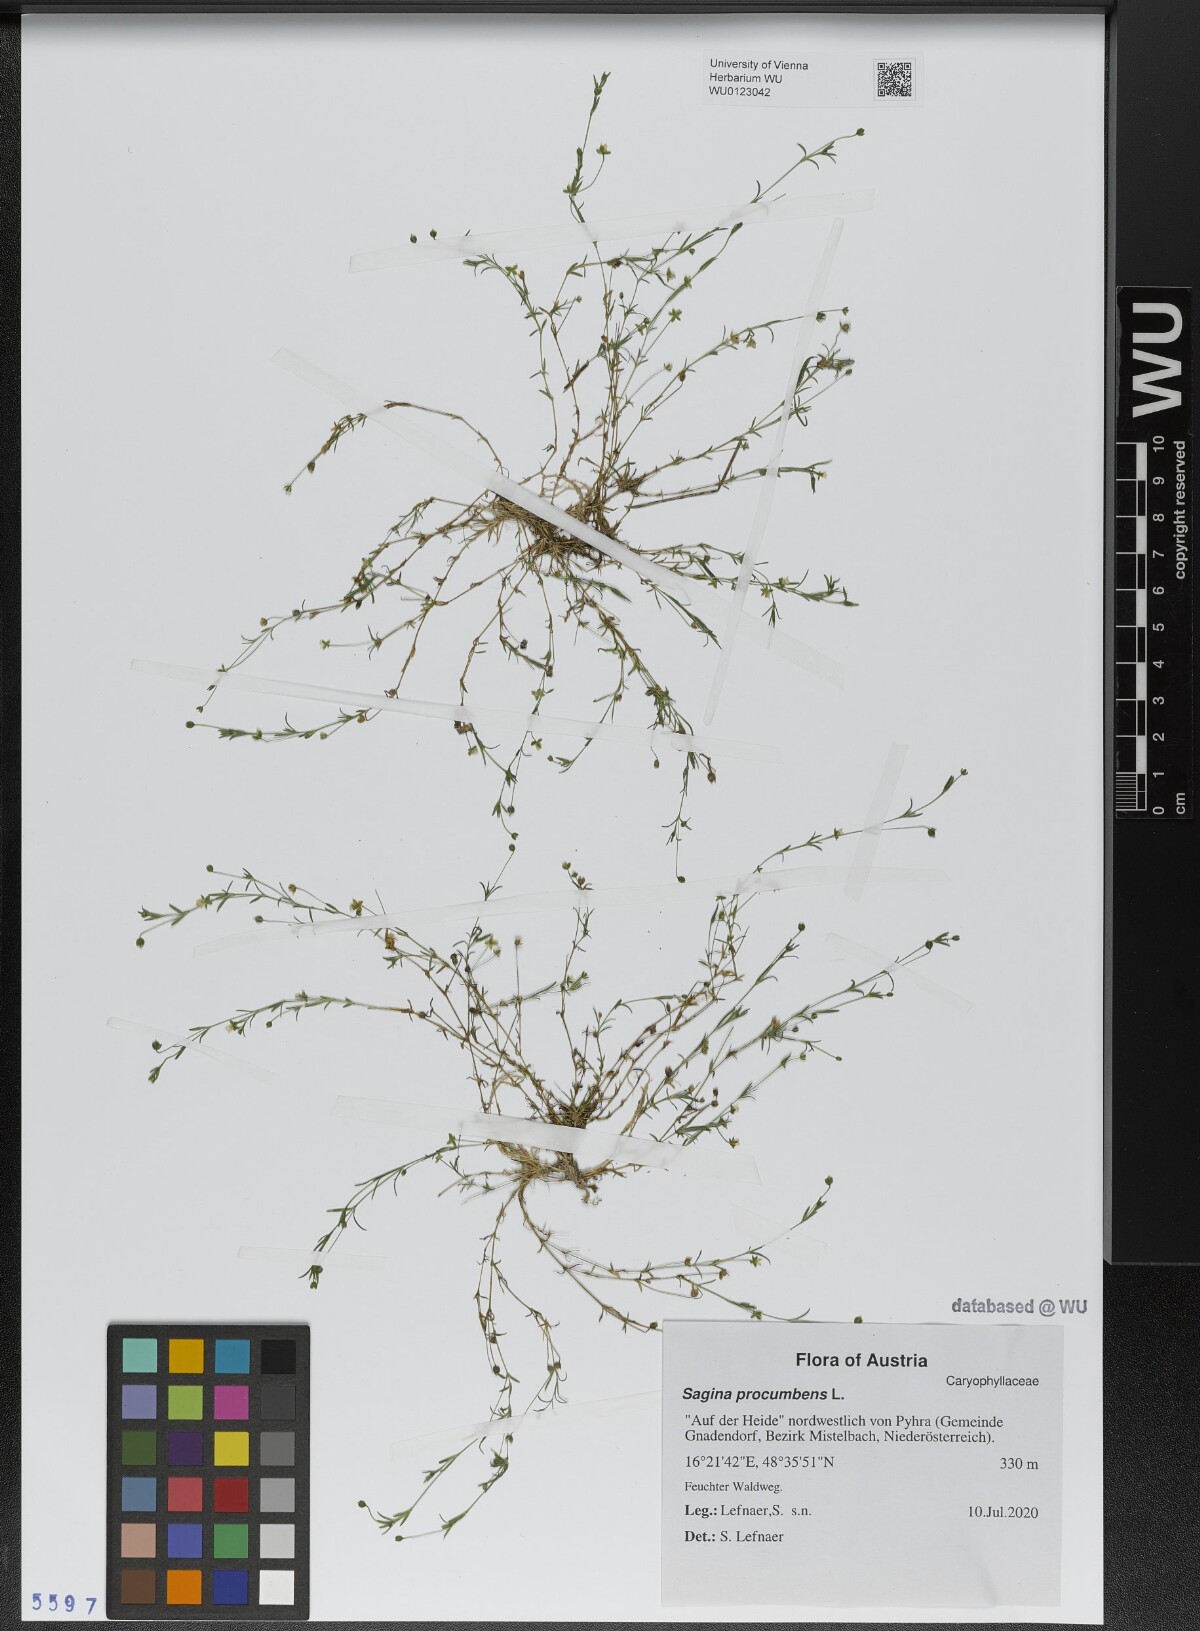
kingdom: Plantae
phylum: Tracheophyta
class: Magnoliopsida
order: Caryophyllales
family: Caryophyllaceae
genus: Sagina
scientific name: Sagina procumbens
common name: Procumbent pearlwort
